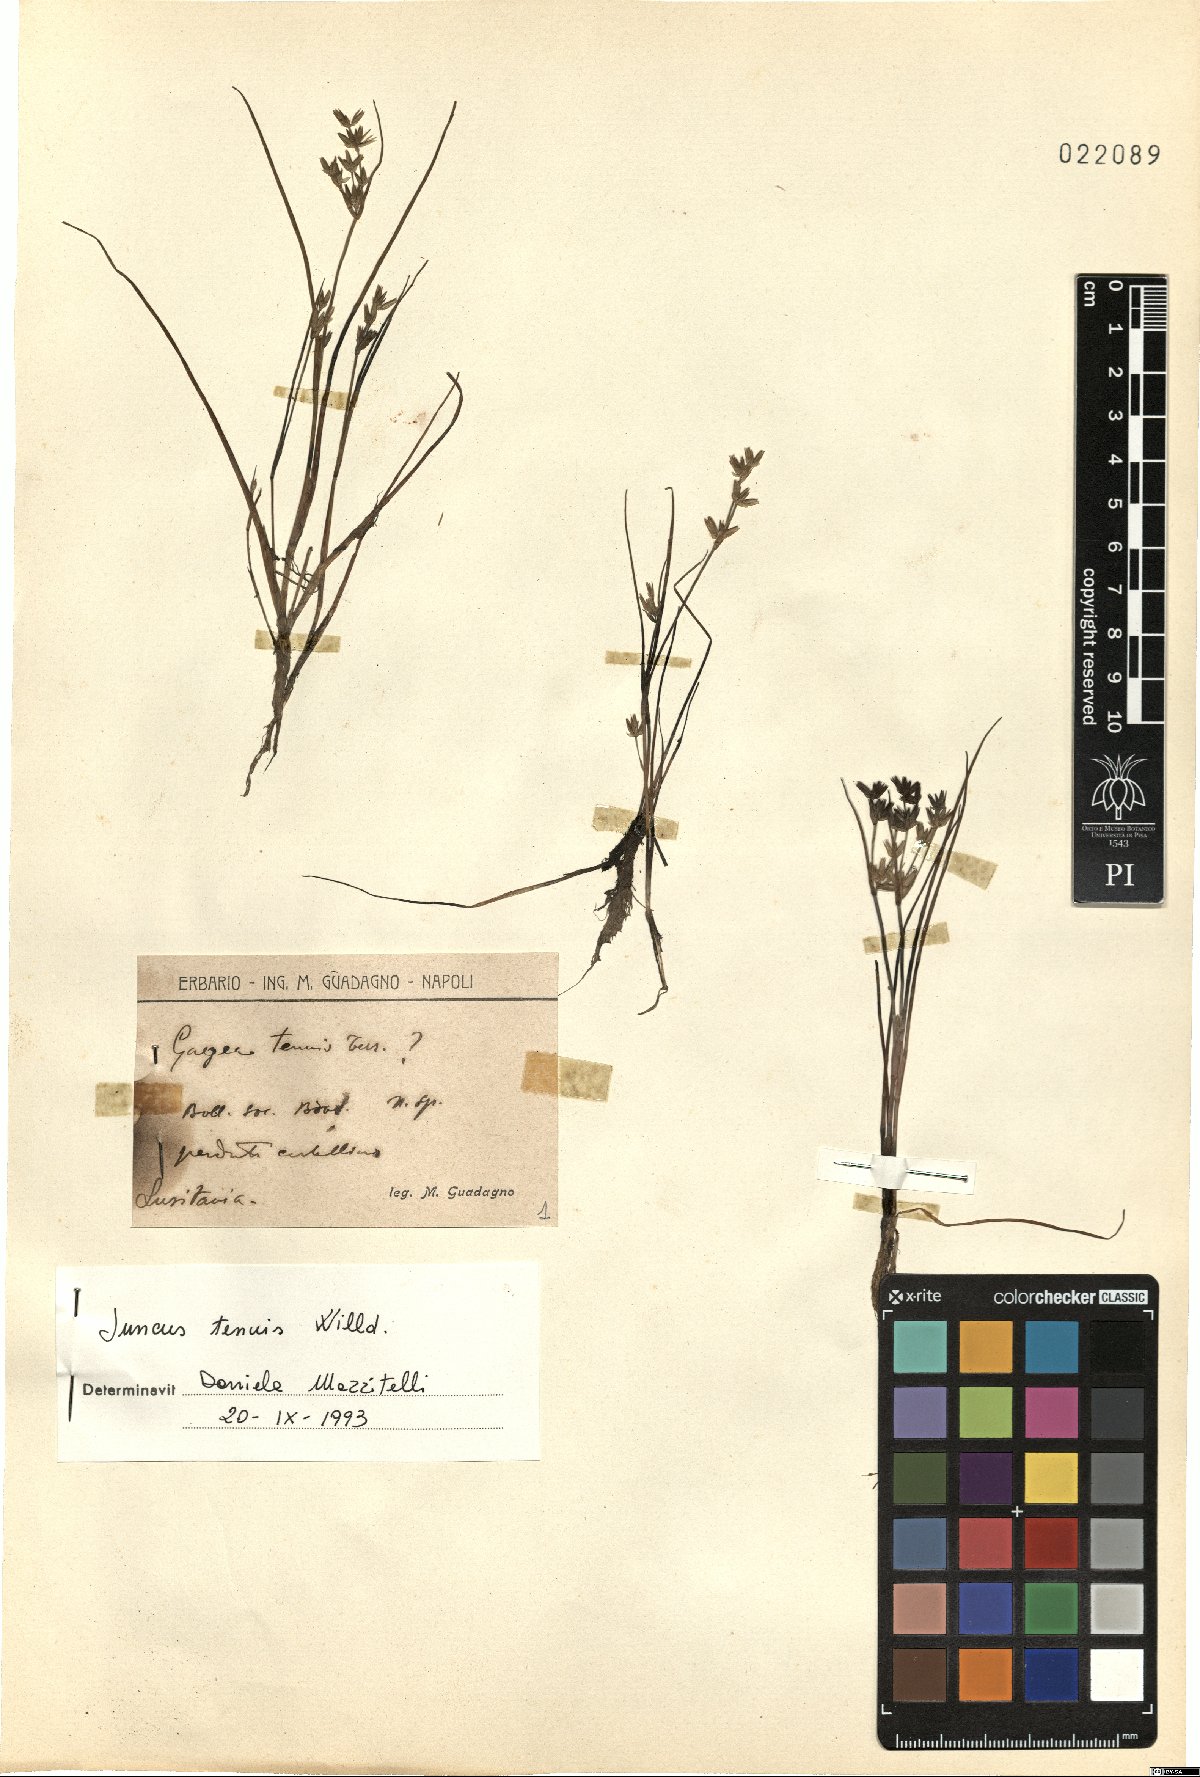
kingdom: Plantae
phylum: Tracheophyta
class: Liliopsida
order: Poales
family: Juncaceae
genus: Juncus
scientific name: Juncus tenuis
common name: Slender rush
